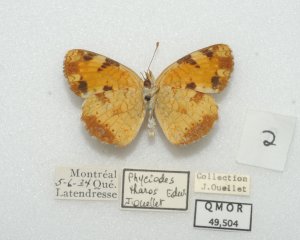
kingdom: Animalia
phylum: Arthropoda
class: Insecta
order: Lepidoptera
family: Nymphalidae
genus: Phyciodes
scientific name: Phyciodes tharos
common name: Northern Crescent
